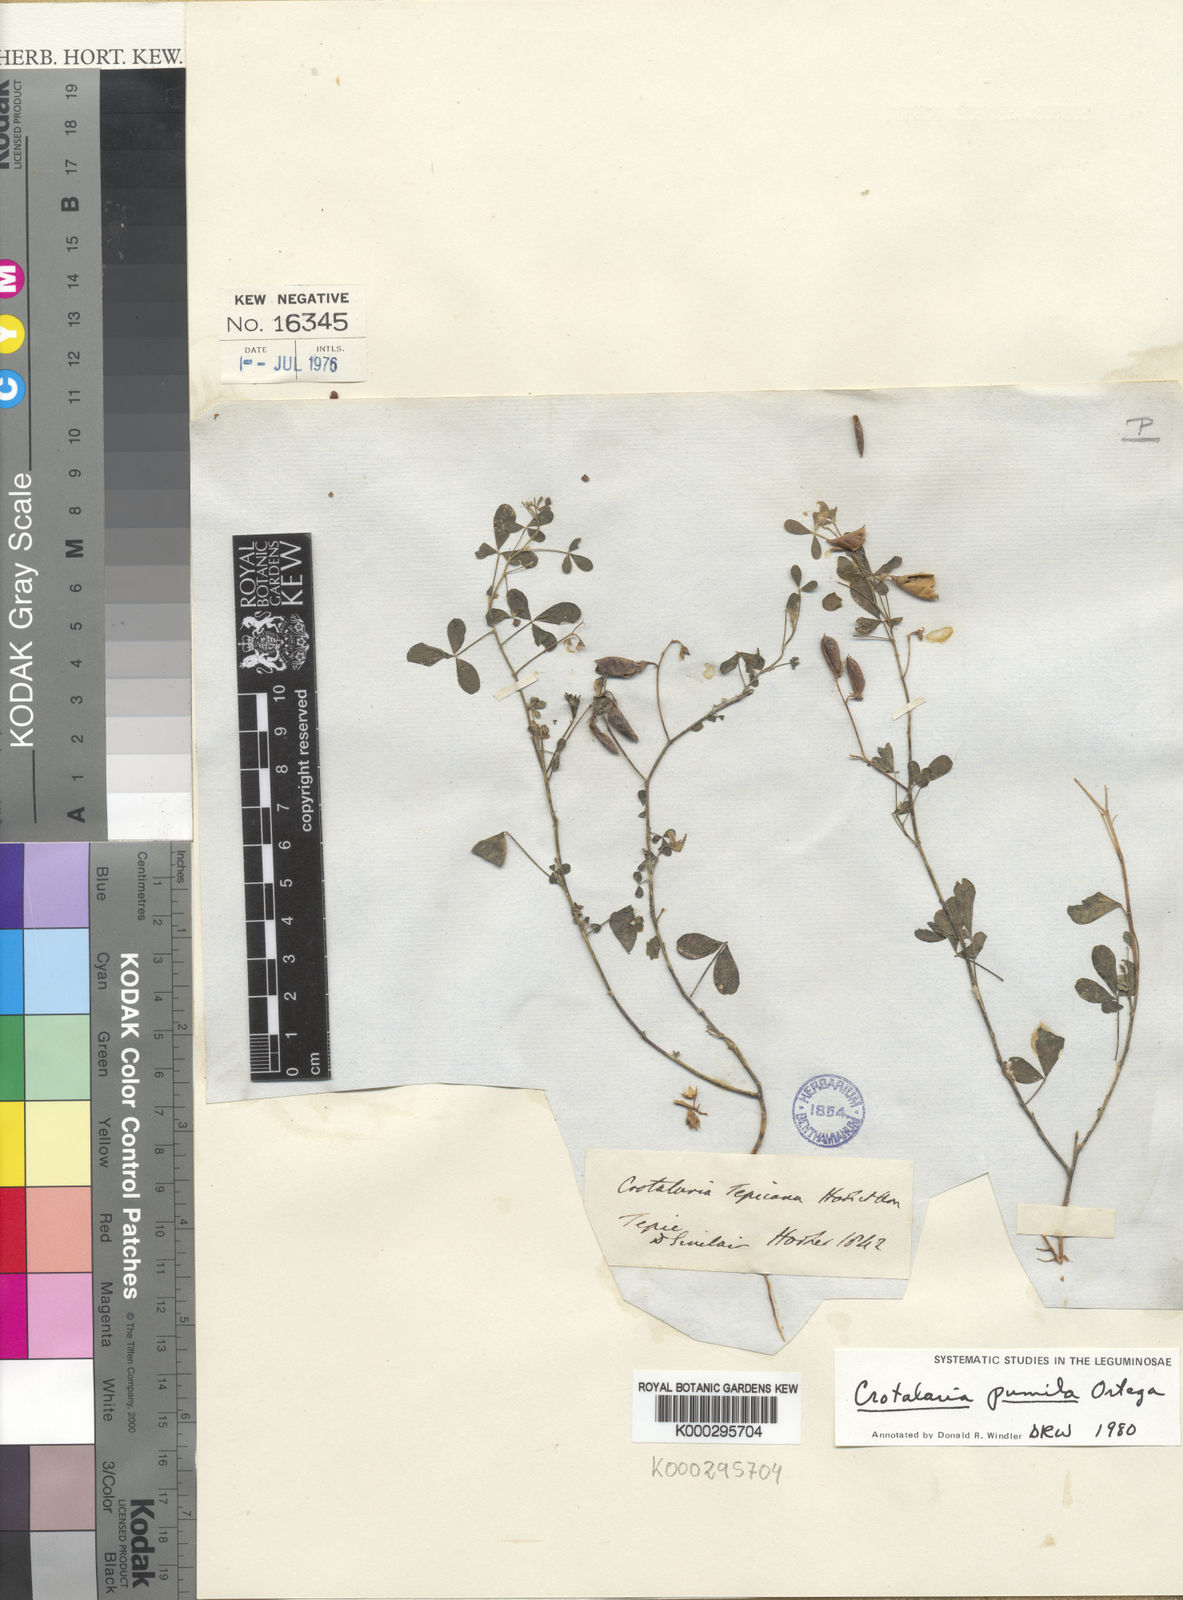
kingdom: Plantae
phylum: Tracheophyta
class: Magnoliopsida
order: Fabales
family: Fabaceae
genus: Crotalaria
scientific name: Crotalaria pumila
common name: Low rattlebox
